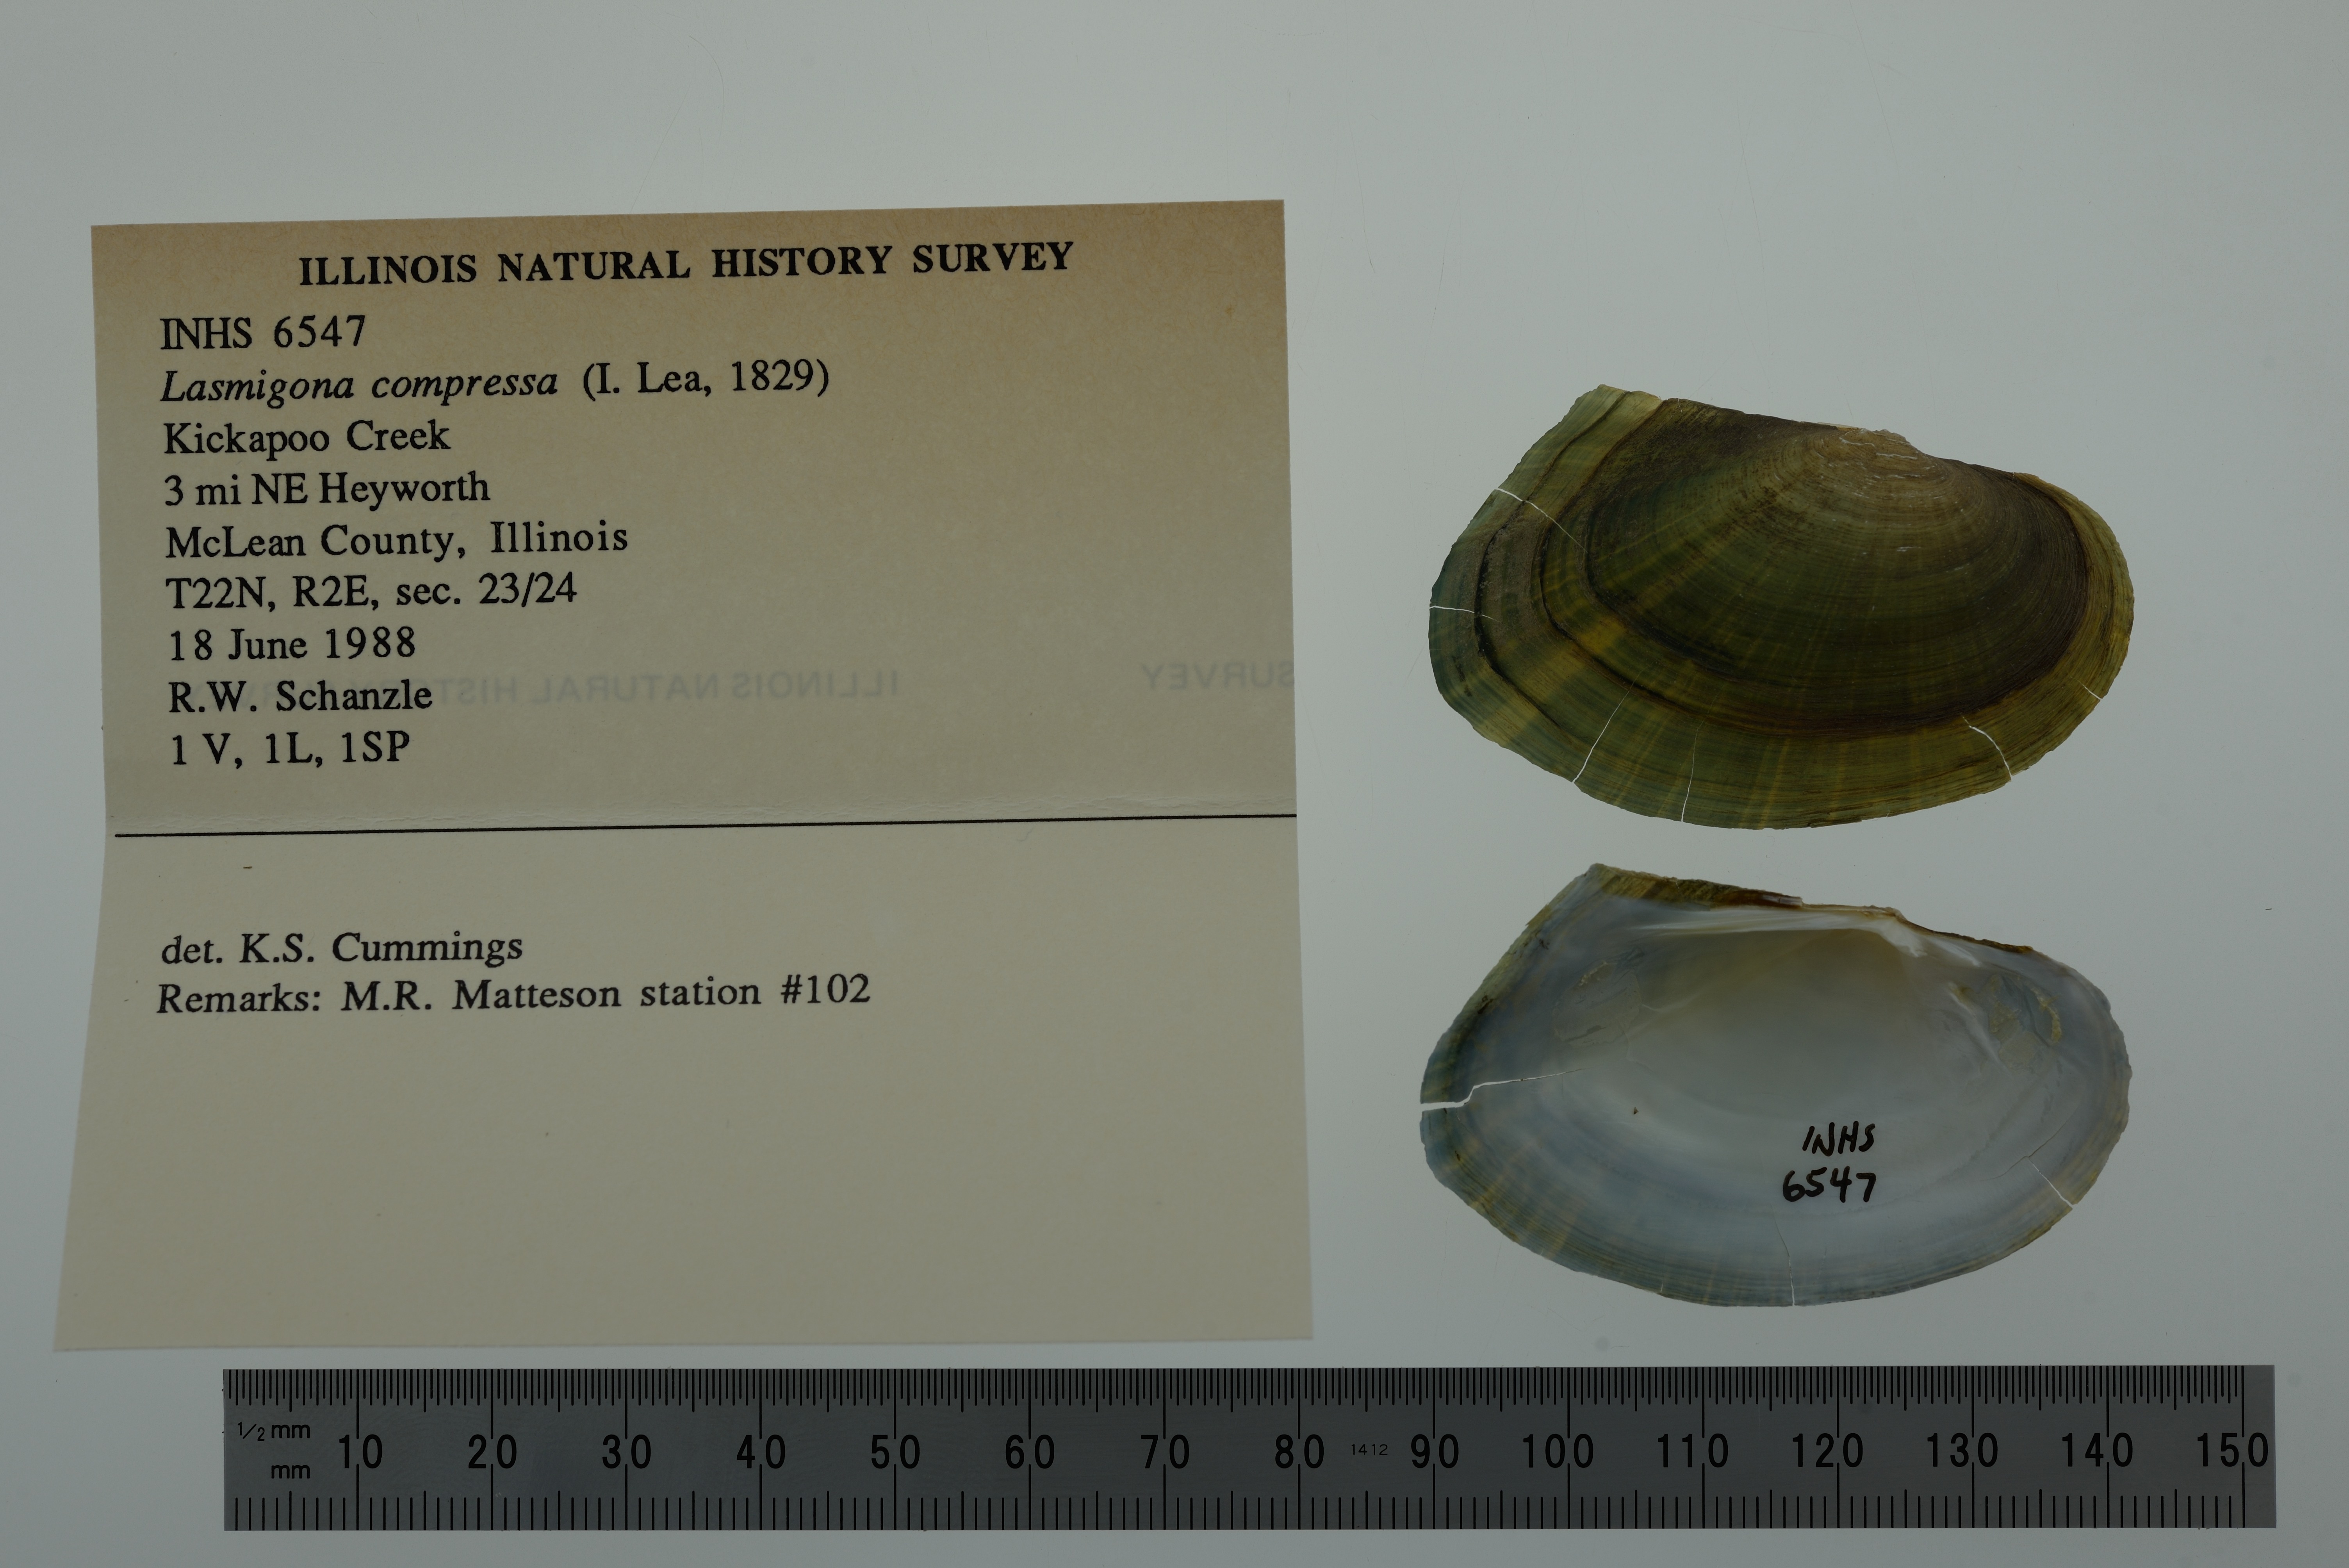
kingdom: Animalia
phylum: Mollusca
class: Bivalvia
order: Unionida
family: Unionidae
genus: Lasmigona
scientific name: Lasmigona compressa
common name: Creek heelsplitter
